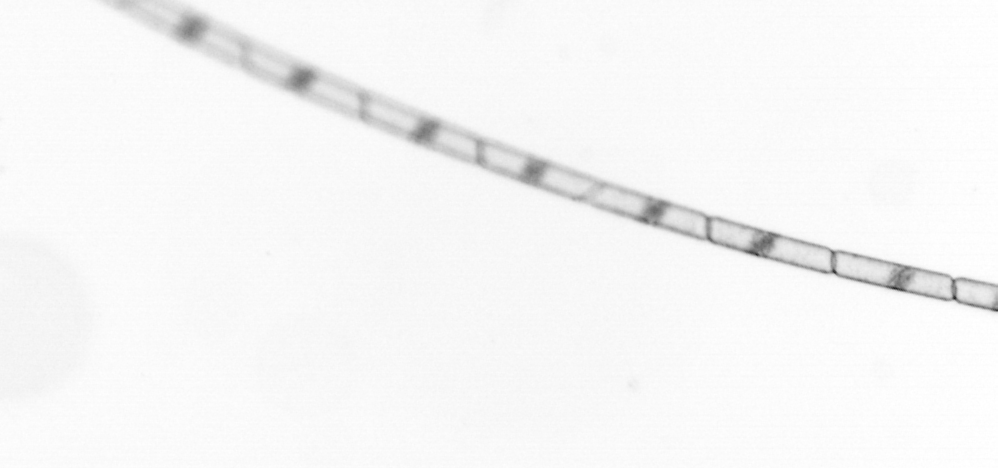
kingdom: Chromista
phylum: Ochrophyta
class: Bacillariophyceae
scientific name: Bacillariophyceae
